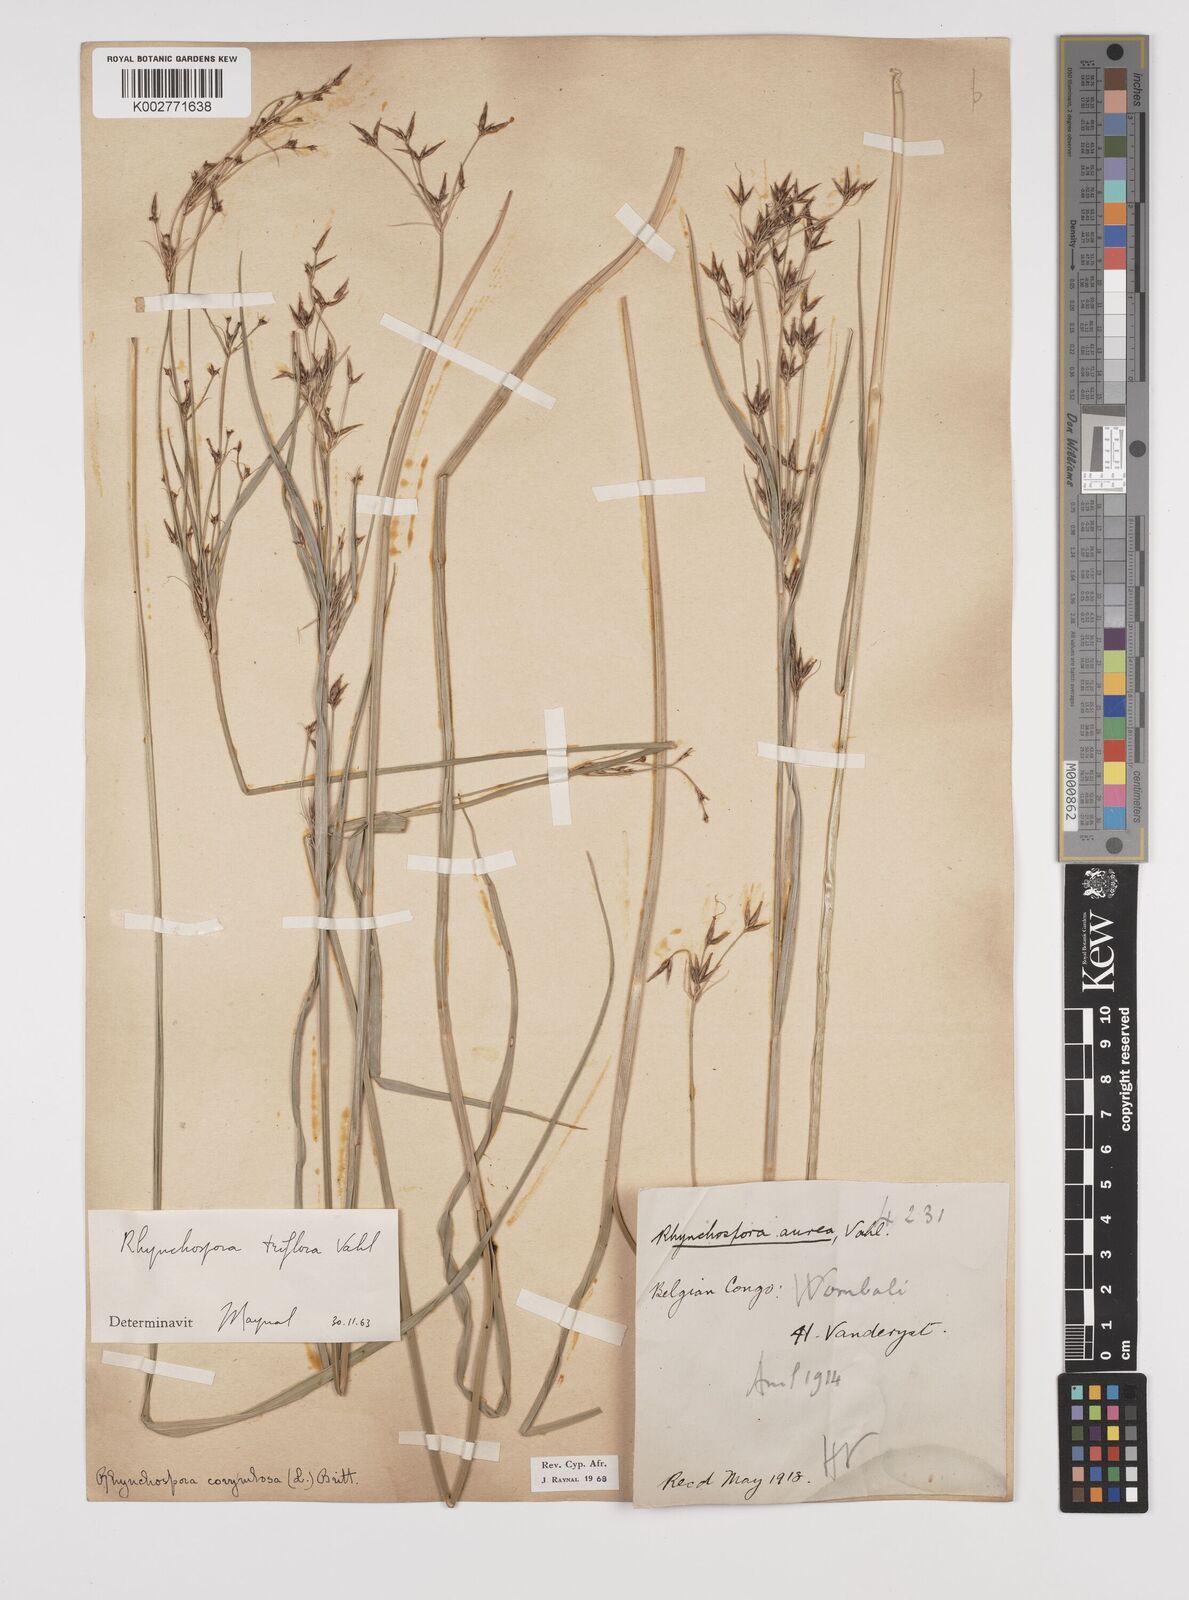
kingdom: Plantae
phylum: Tracheophyta
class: Liliopsida
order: Poales
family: Cyperaceae
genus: Rhynchospora
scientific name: Rhynchospora triflora
